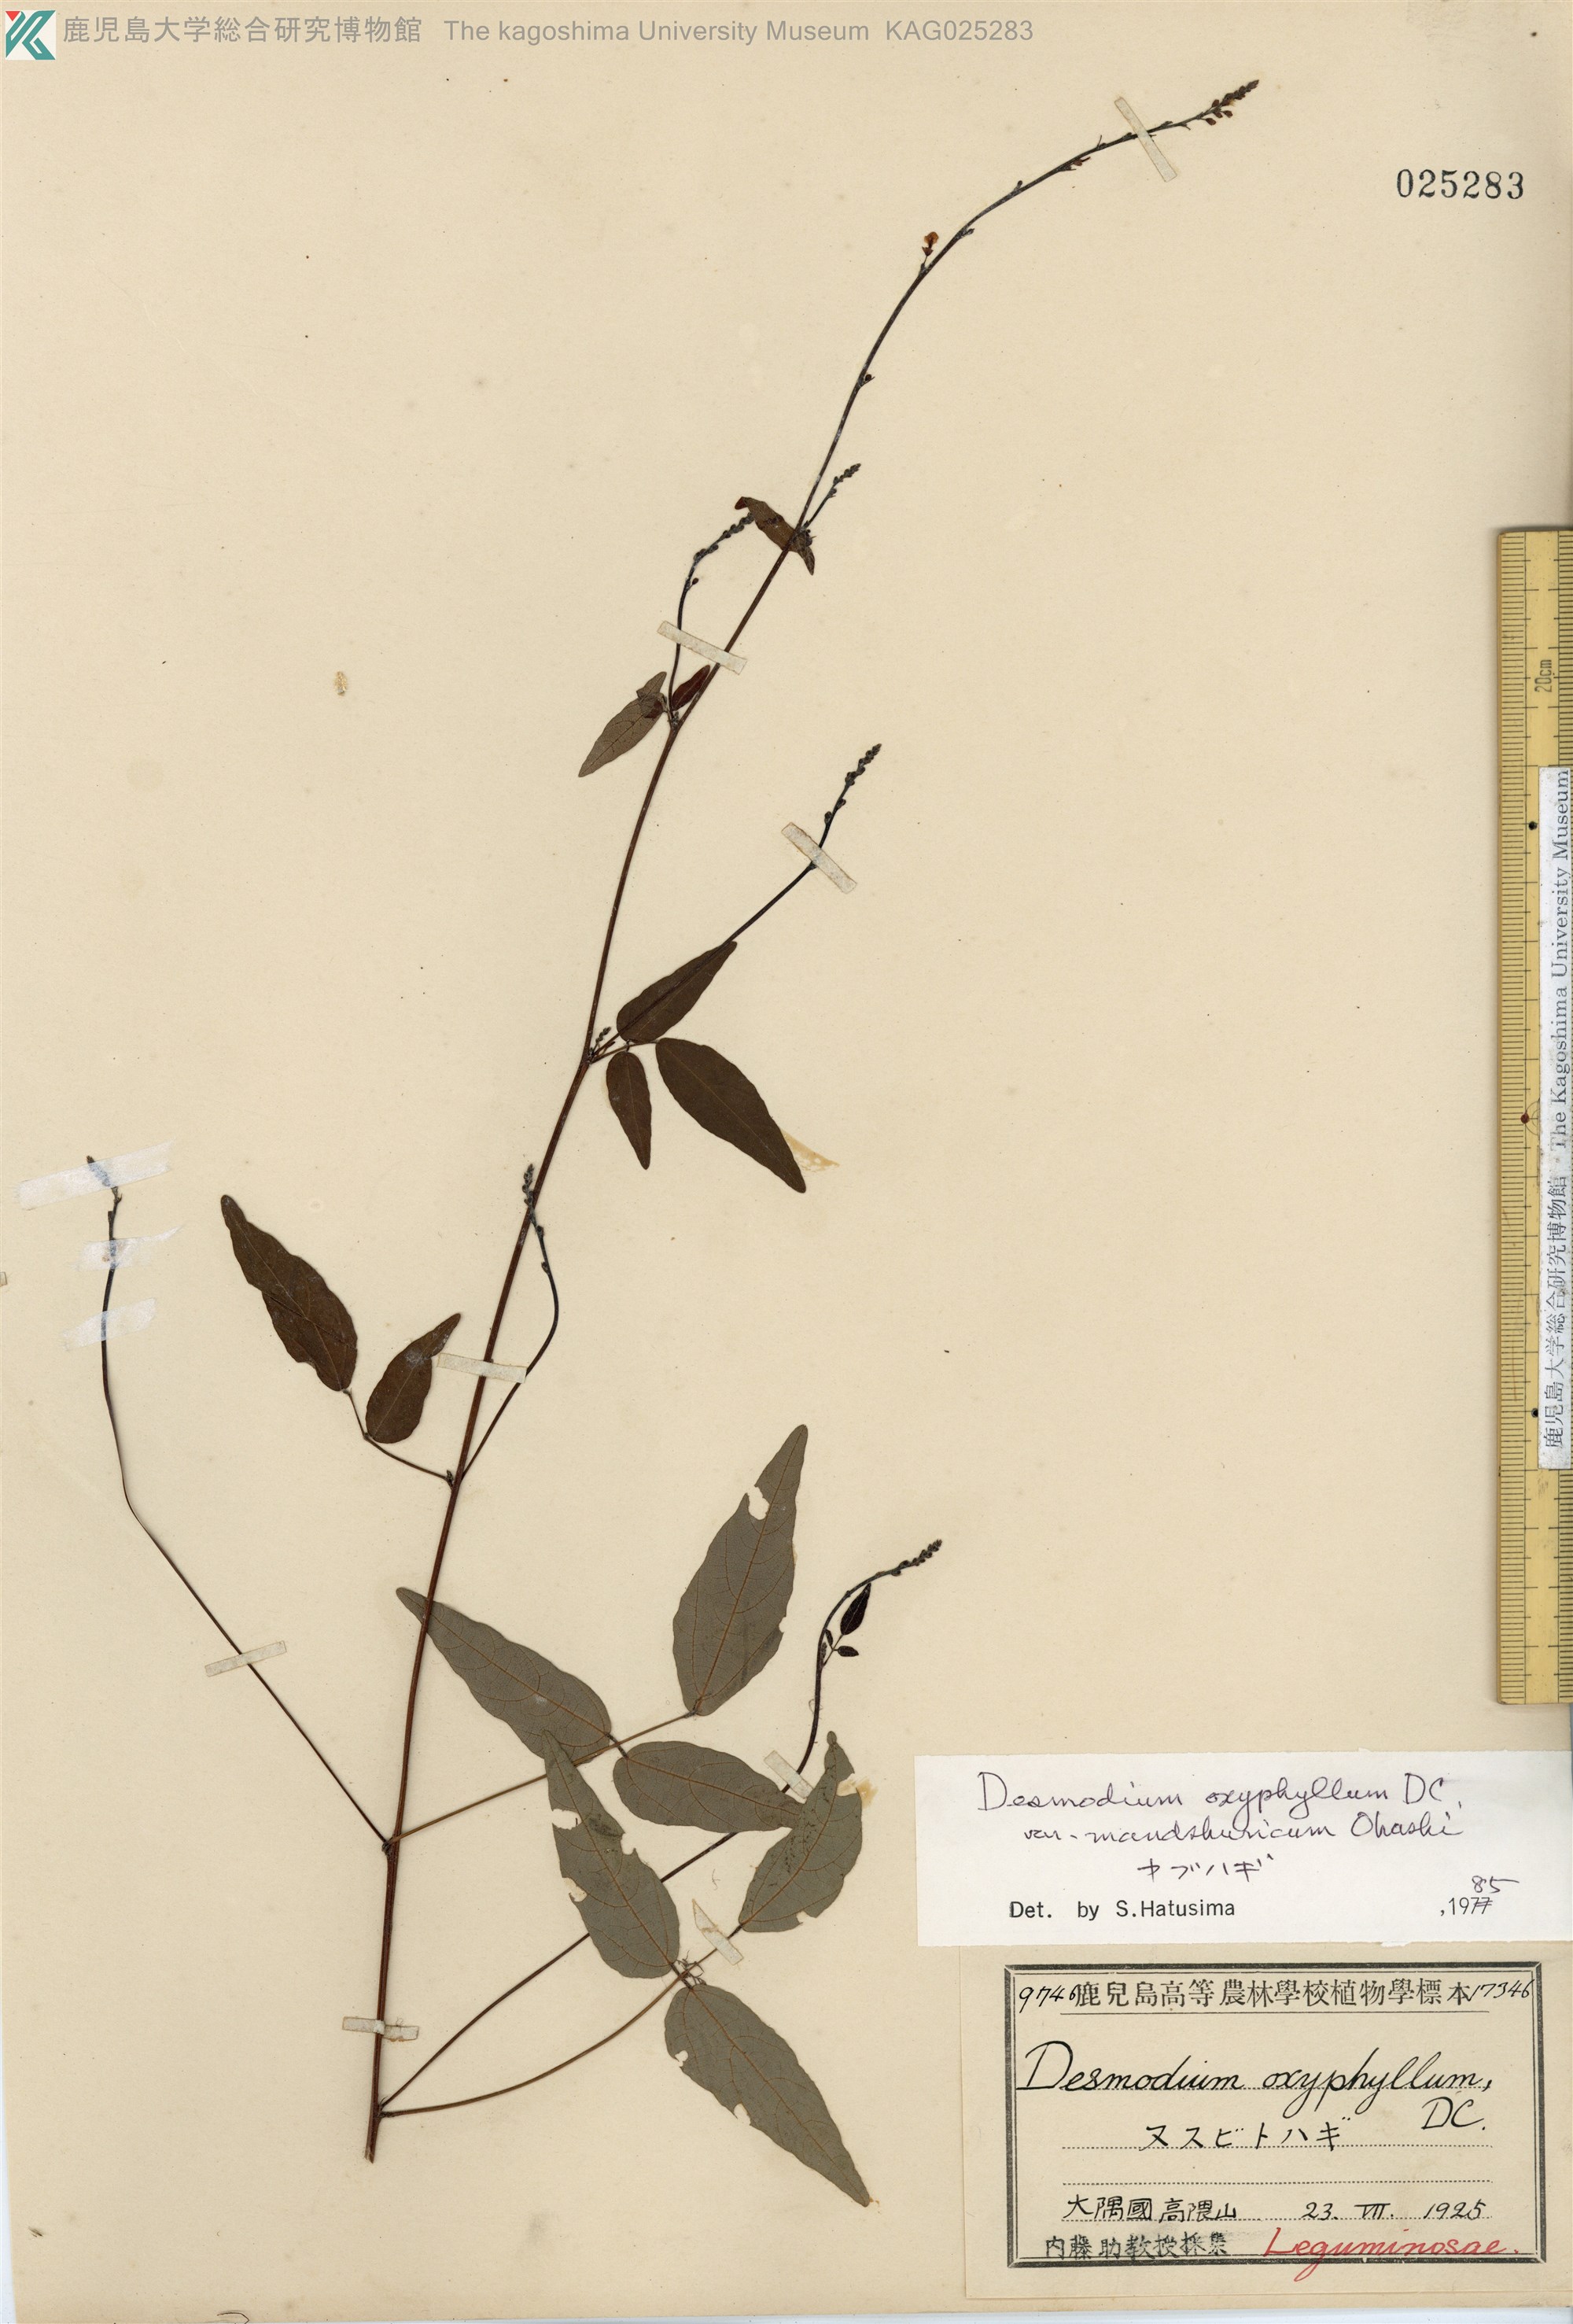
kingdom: Plantae
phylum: Tracheophyta
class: Magnoliopsida
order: Fabales
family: Fabaceae
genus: Hylodesmum
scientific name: Hylodesmum podocarpum
